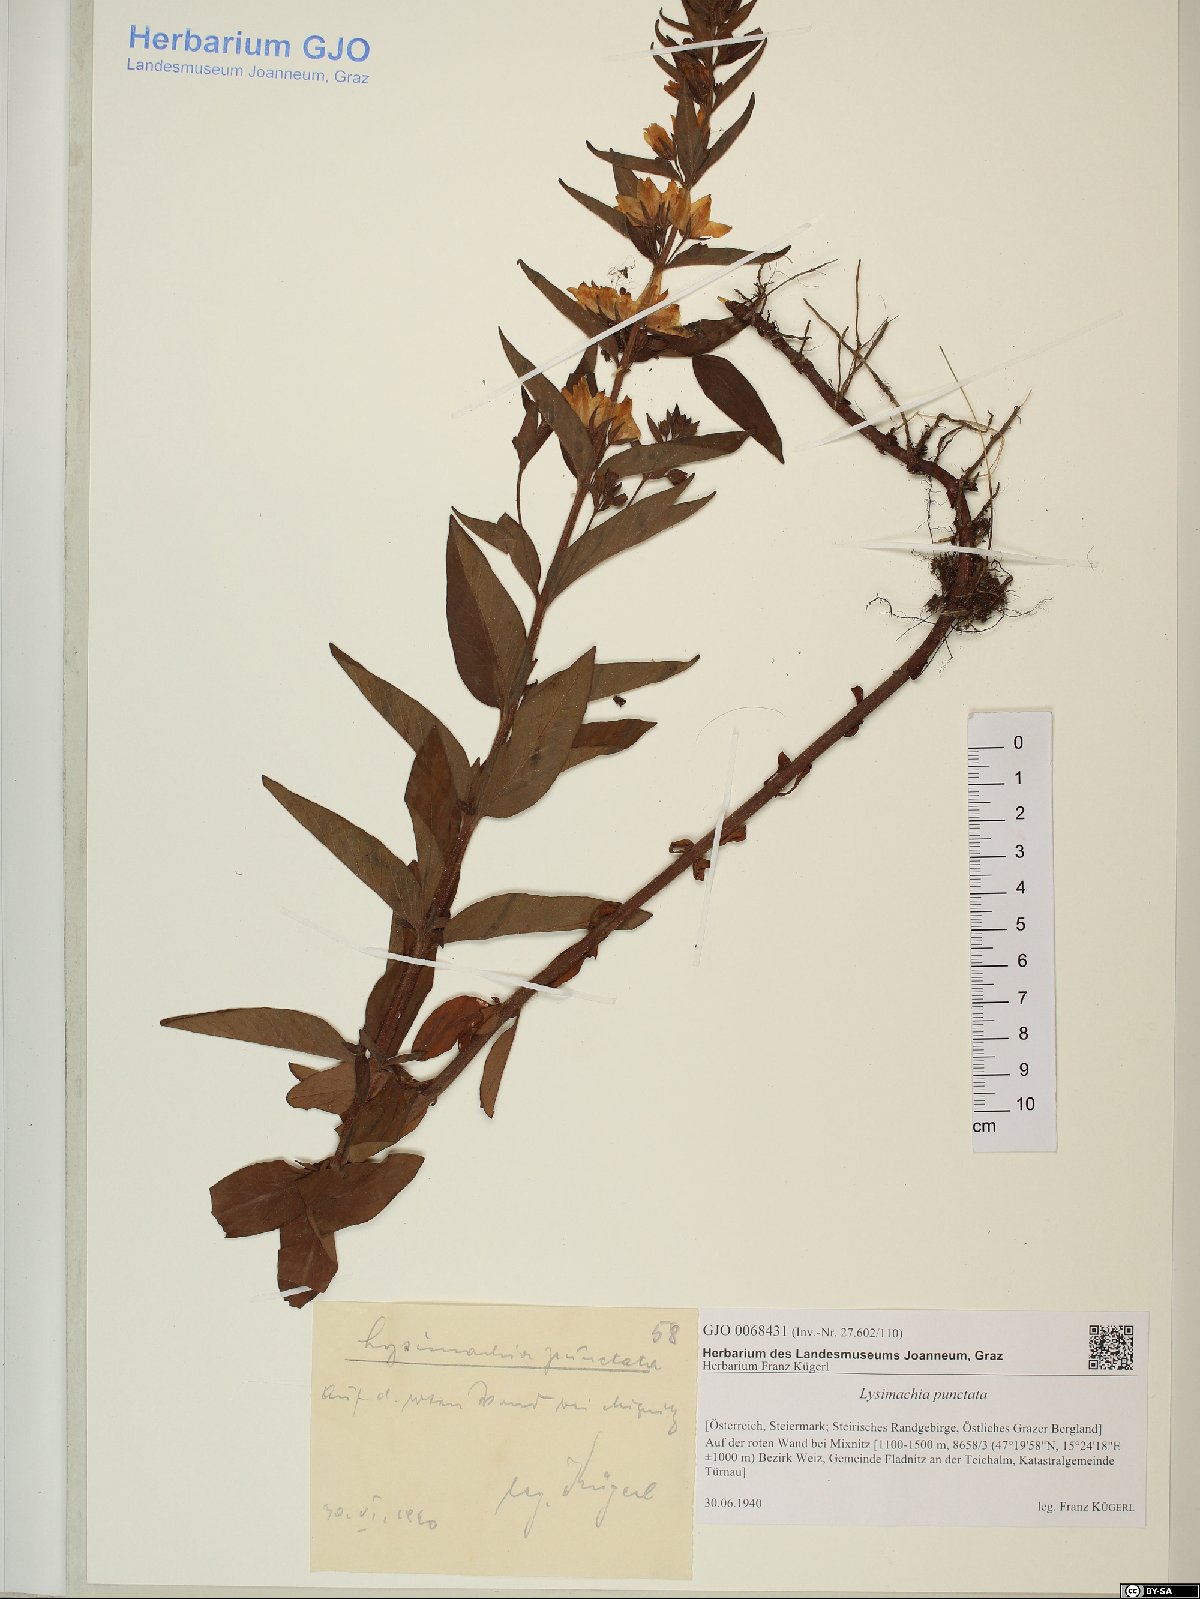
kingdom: Plantae
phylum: Tracheophyta
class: Magnoliopsida
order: Ericales
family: Primulaceae
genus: Lysimachia
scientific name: Lysimachia punctata
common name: Dotted loosestrife
